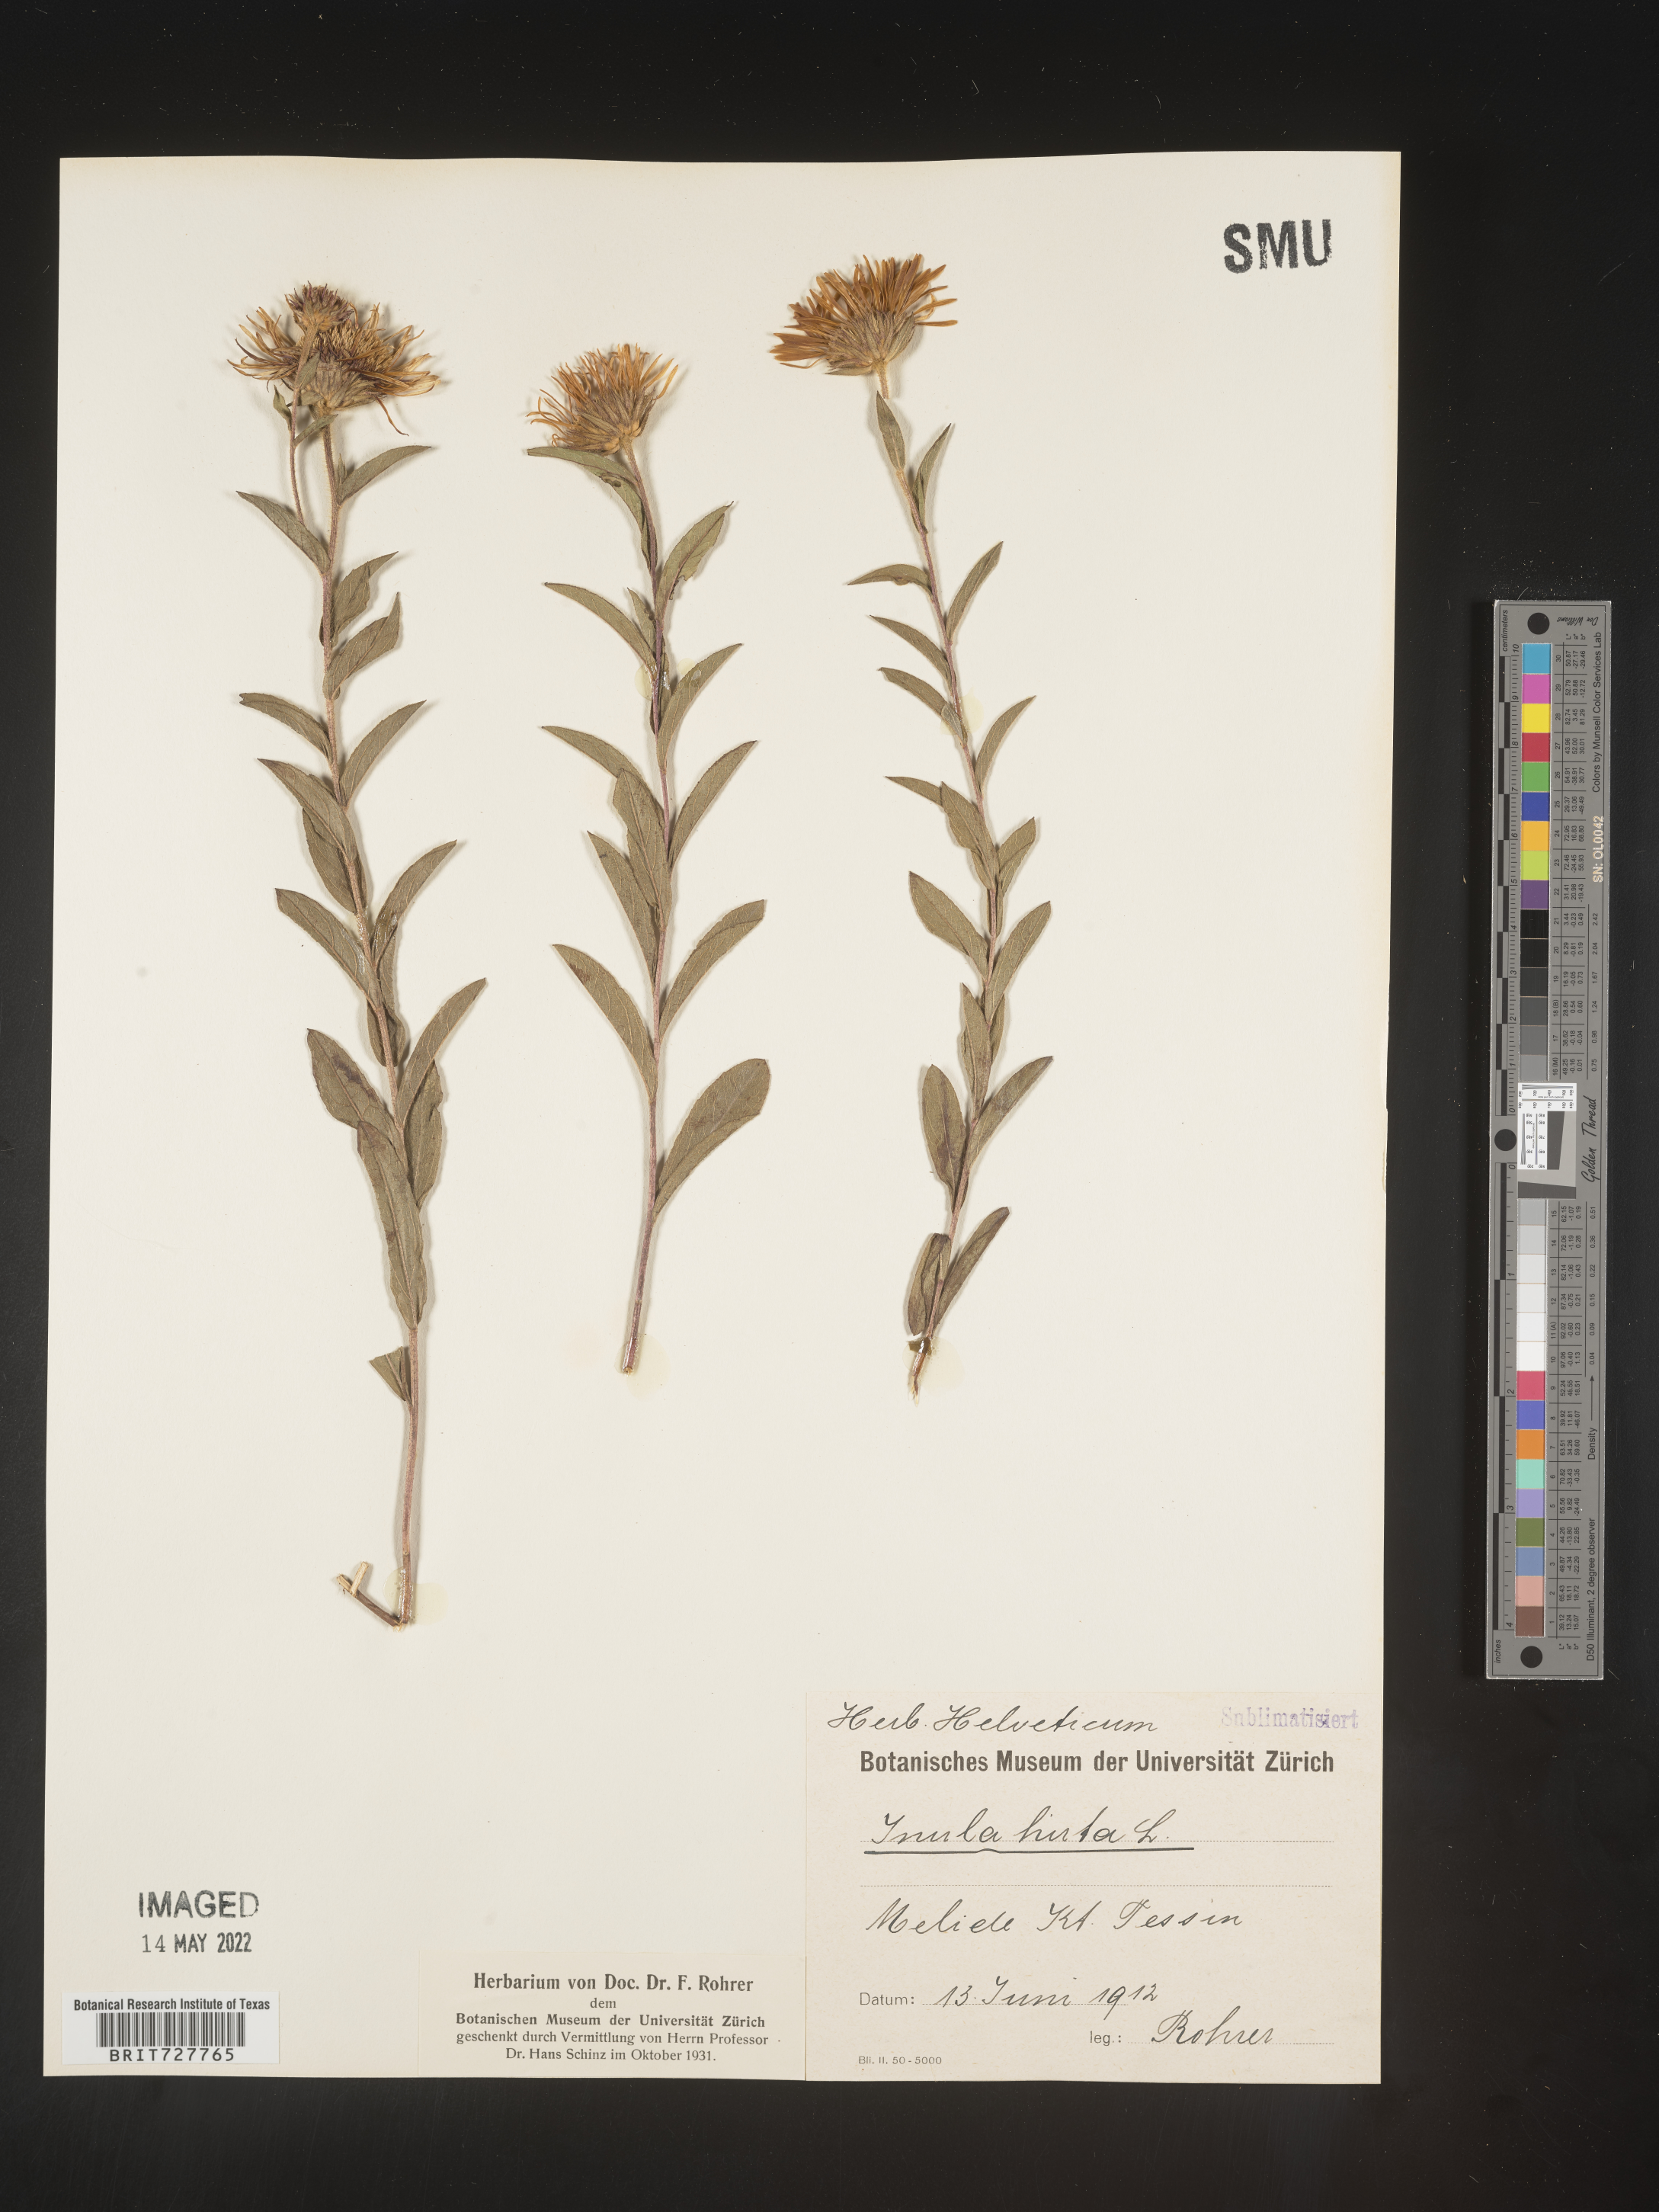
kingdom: Plantae
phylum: Tracheophyta
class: Magnoliopsida
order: Asterales
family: Asteraceae
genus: Inula
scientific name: Inula
